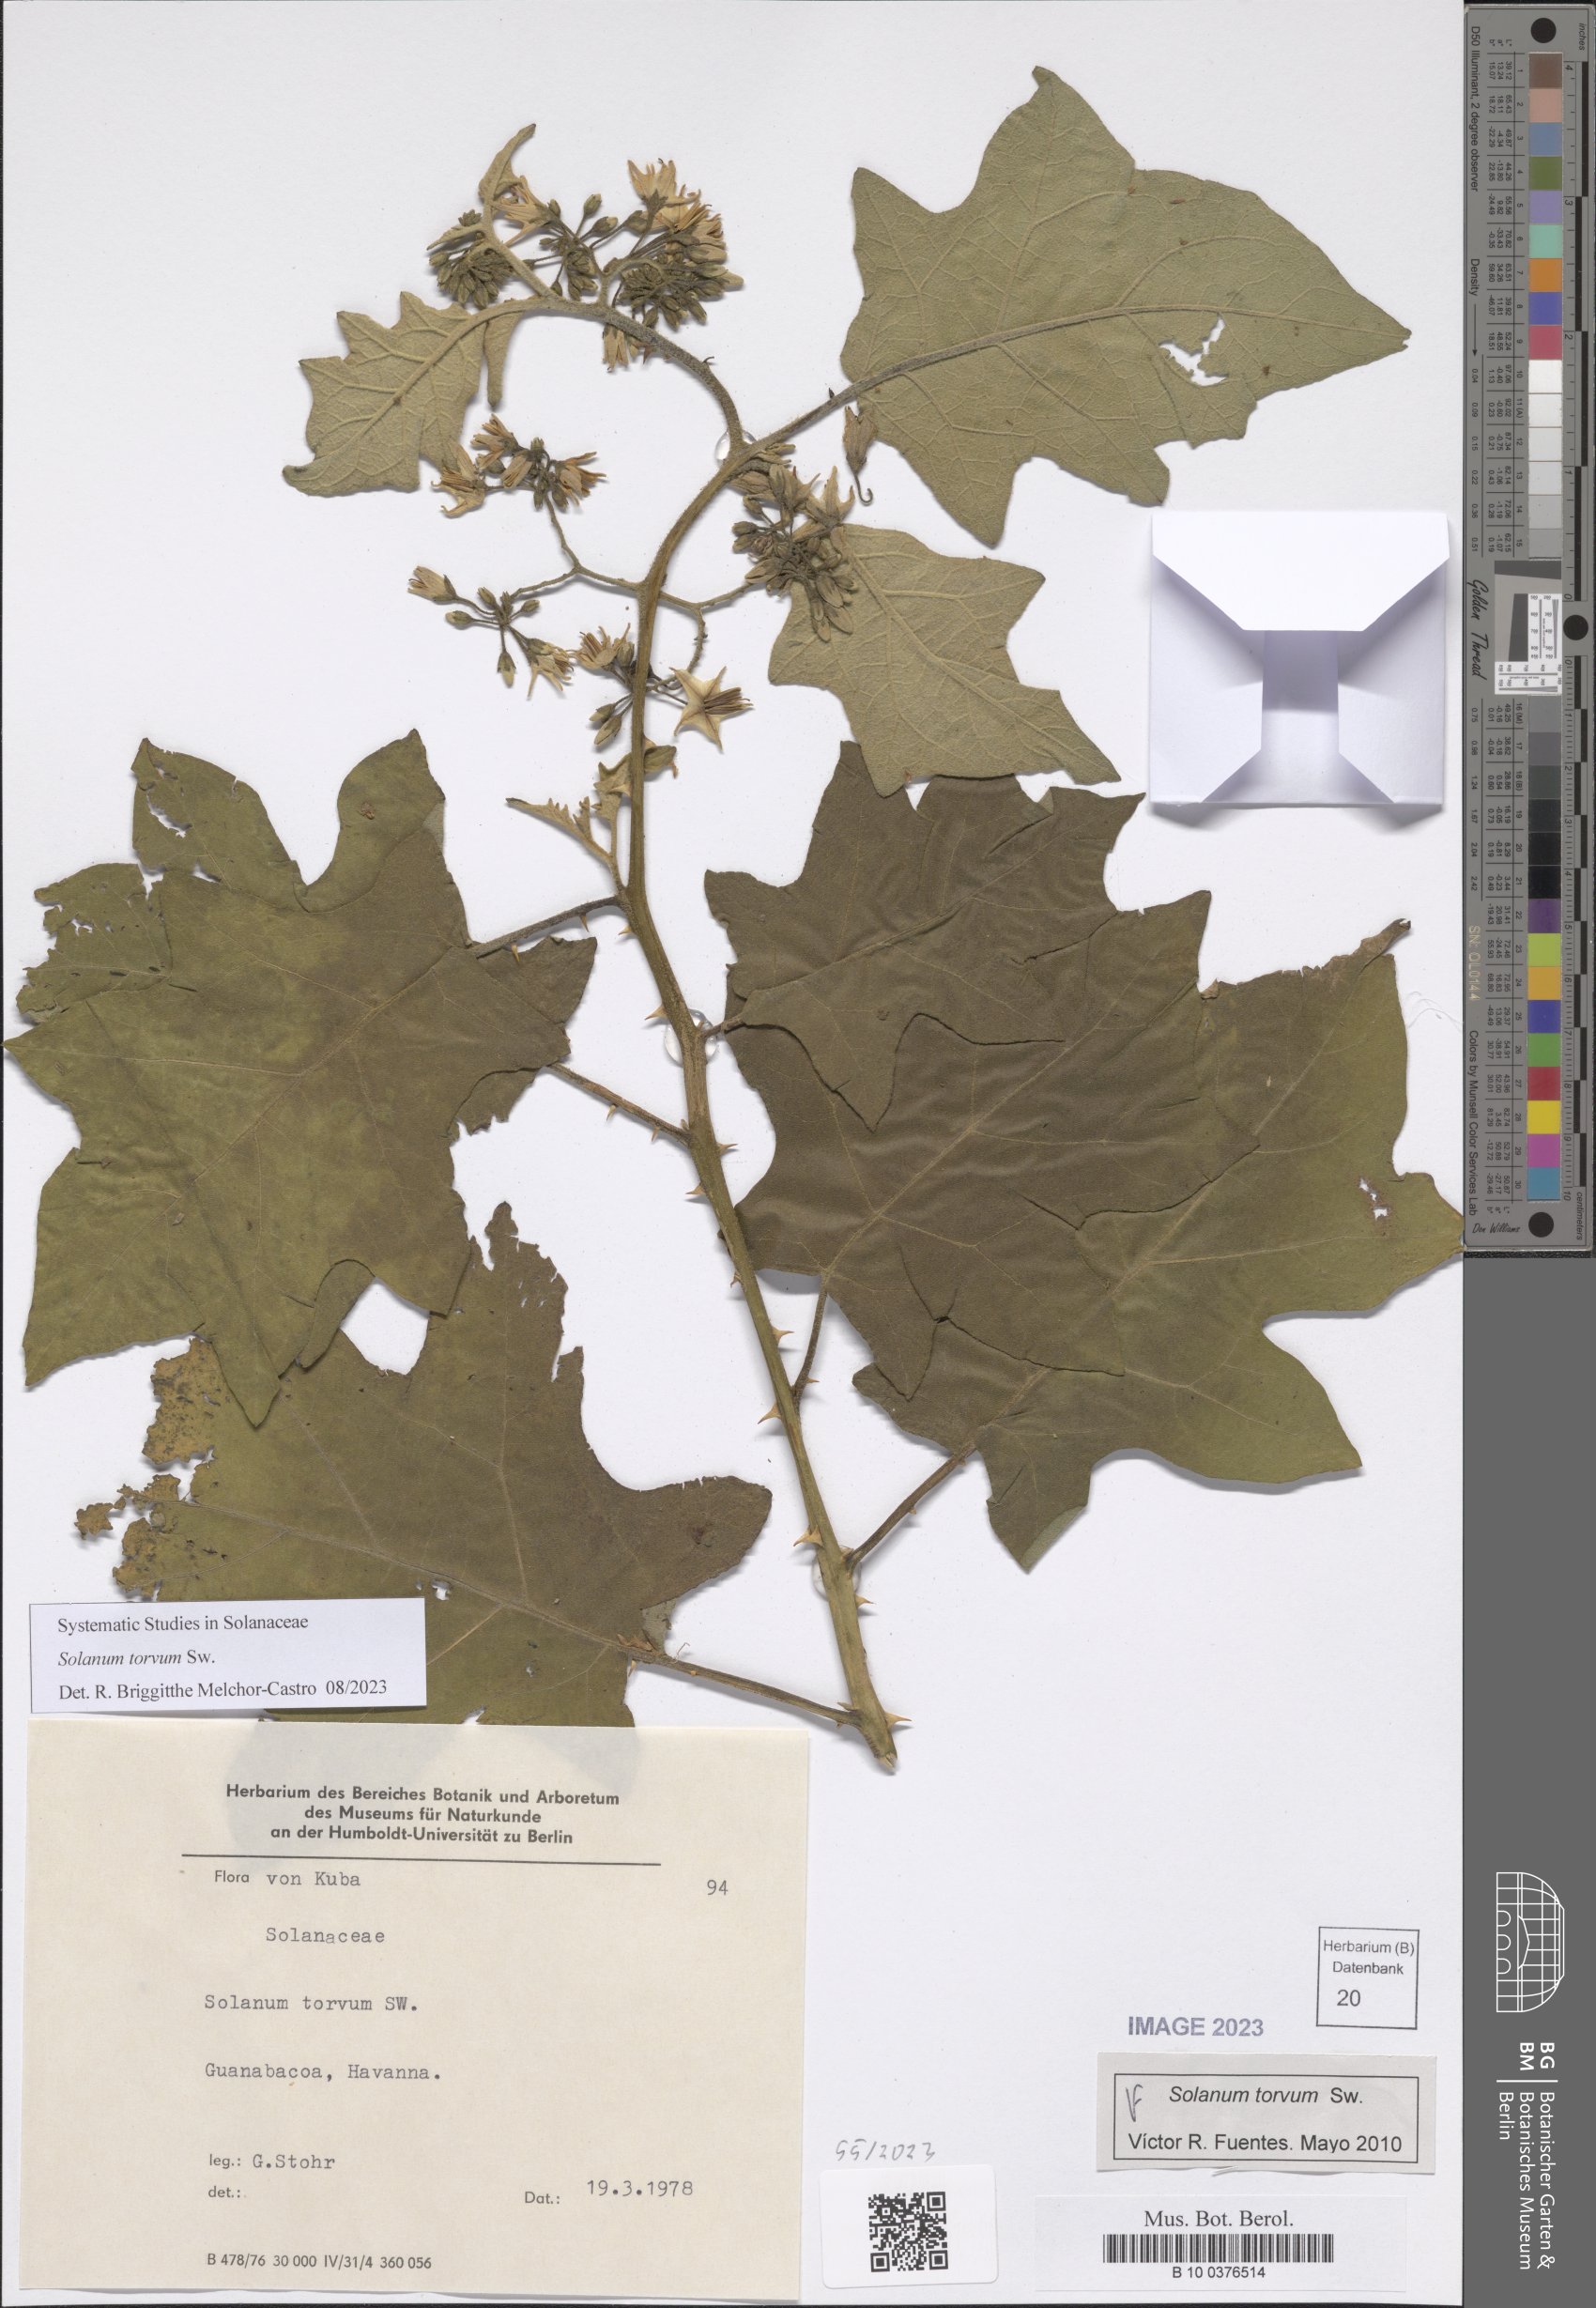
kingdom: Plantae
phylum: Tracheophyta
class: Magnoliopsida
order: Solanales
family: Solanaceae
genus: Solanum
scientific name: Solanum torvum
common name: Turkey berry
